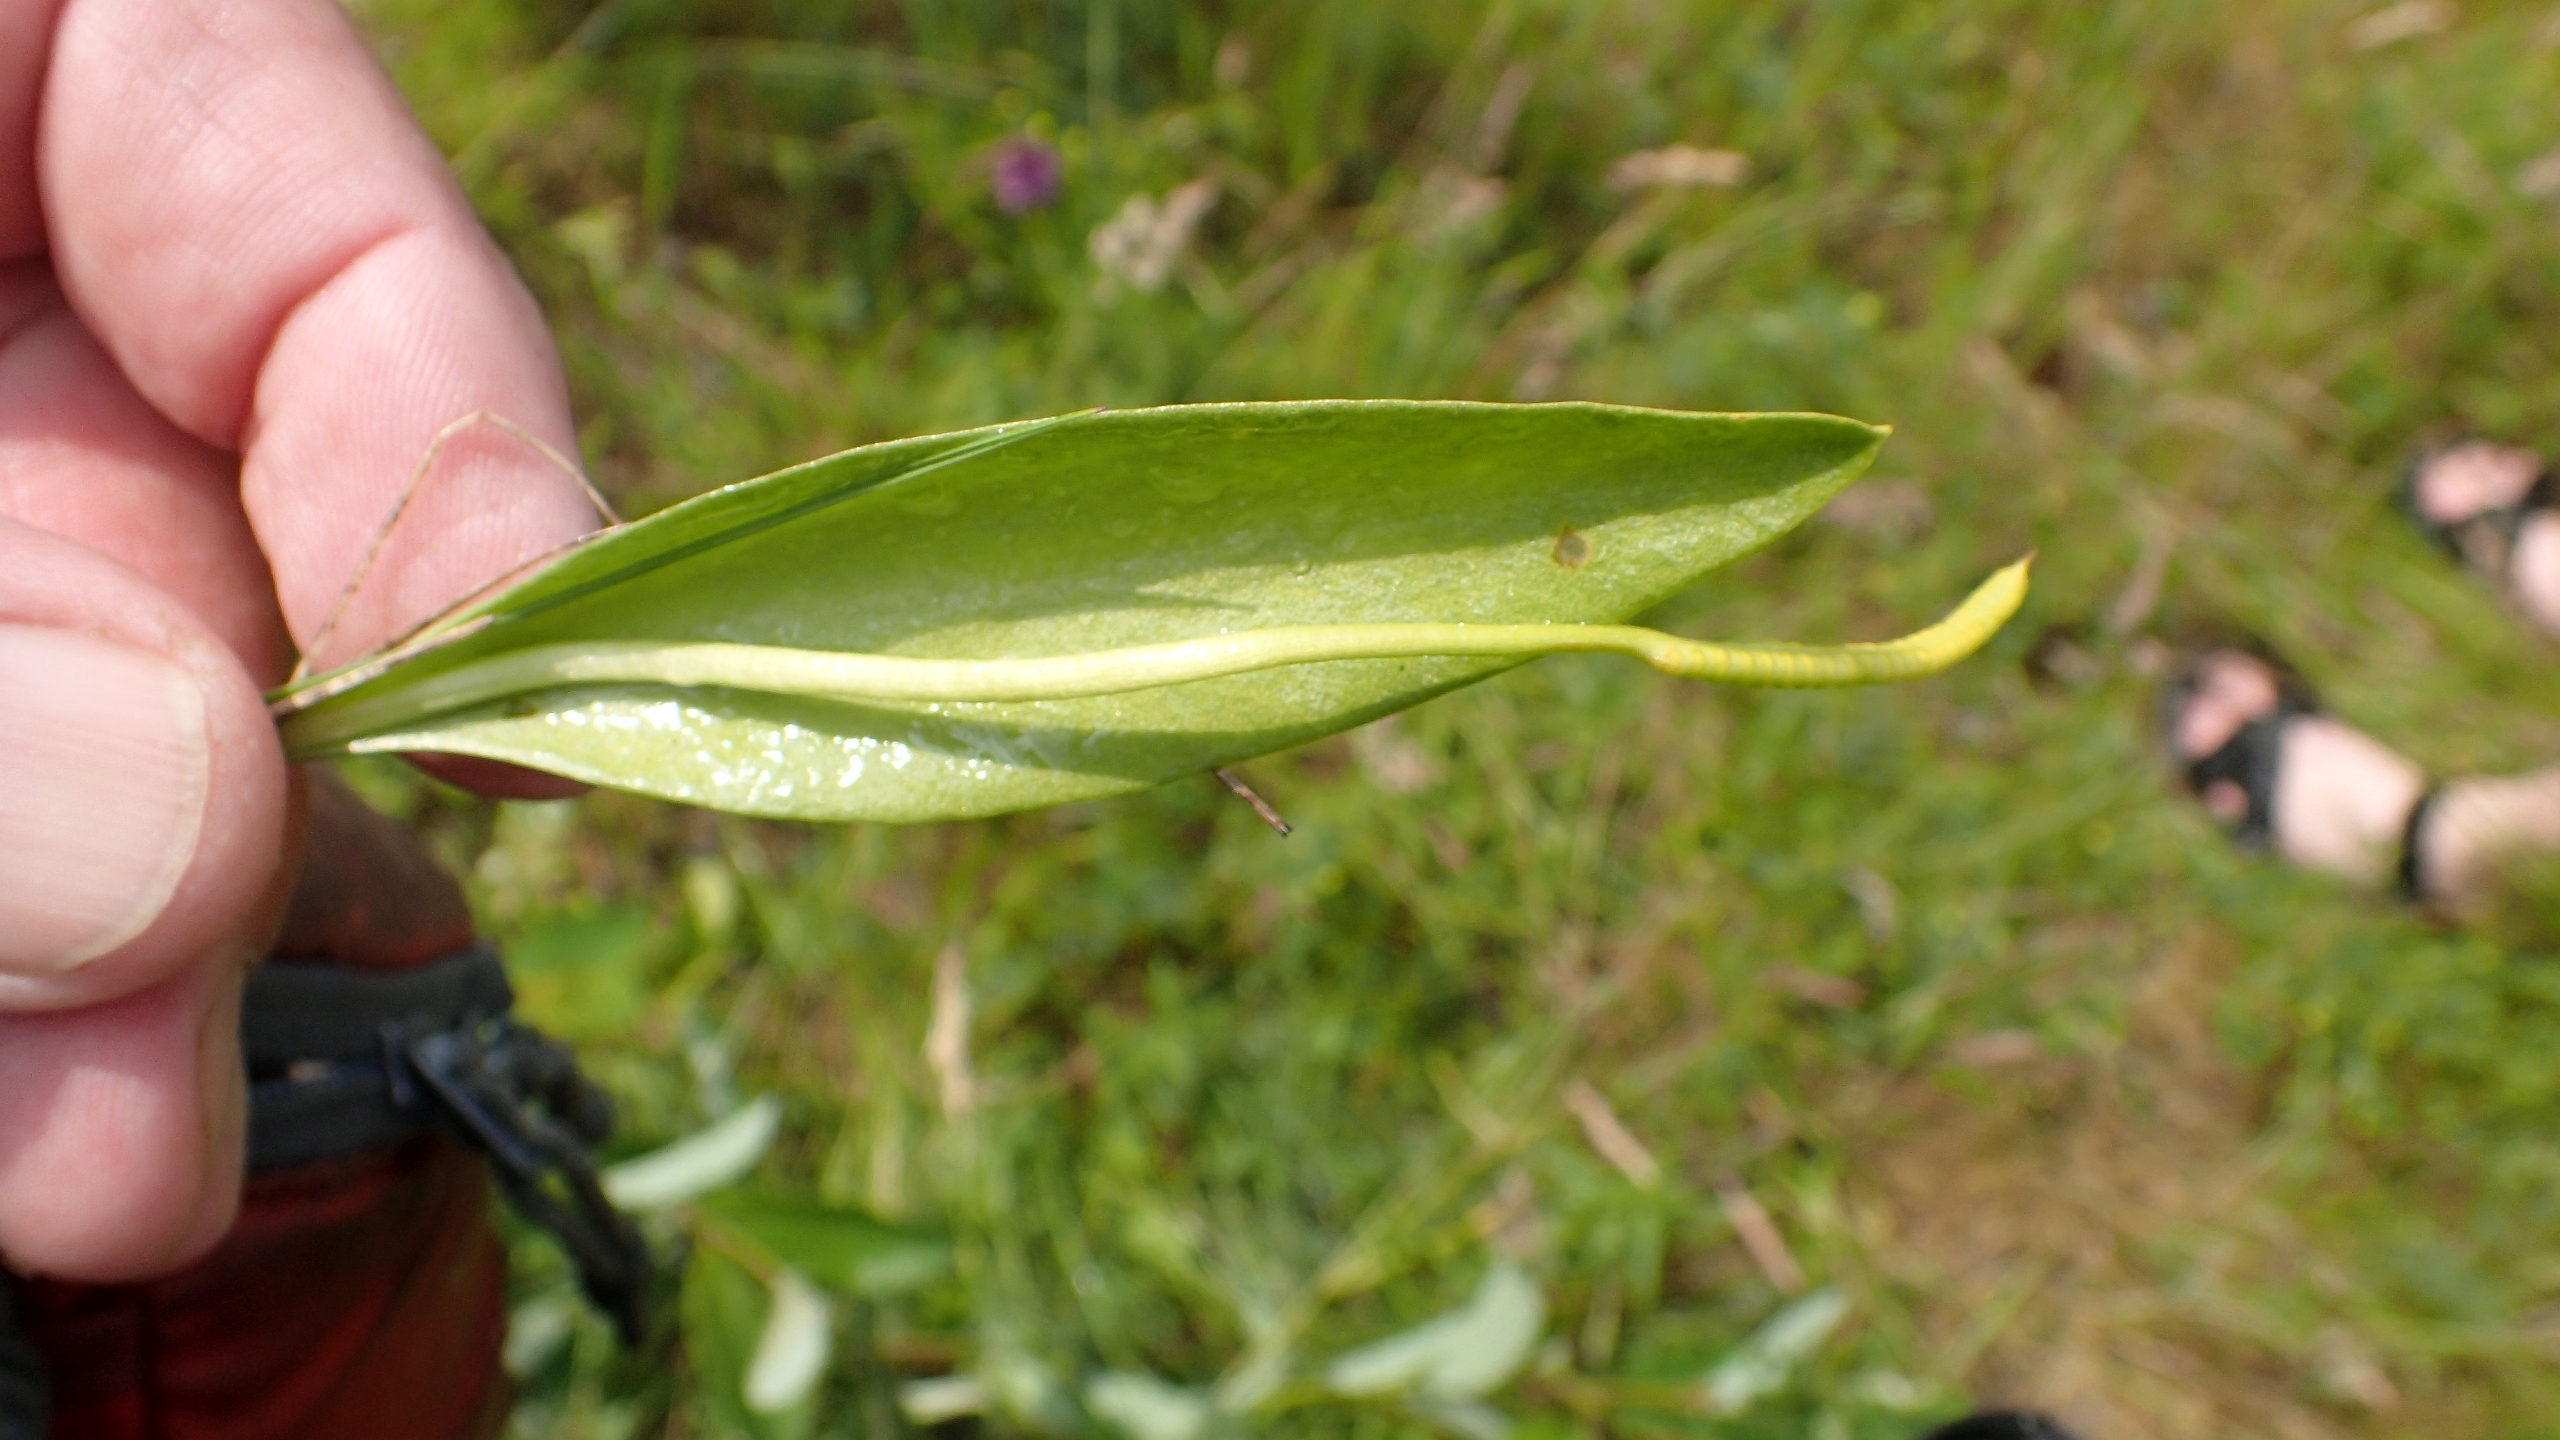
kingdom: Plantae
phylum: Tracheophyta
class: Polypodiopsida
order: Ophioglossales
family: Ophioglossaceae
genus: Ophioglossum
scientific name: Ophioglossum vulgatum
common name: Slangetunge
